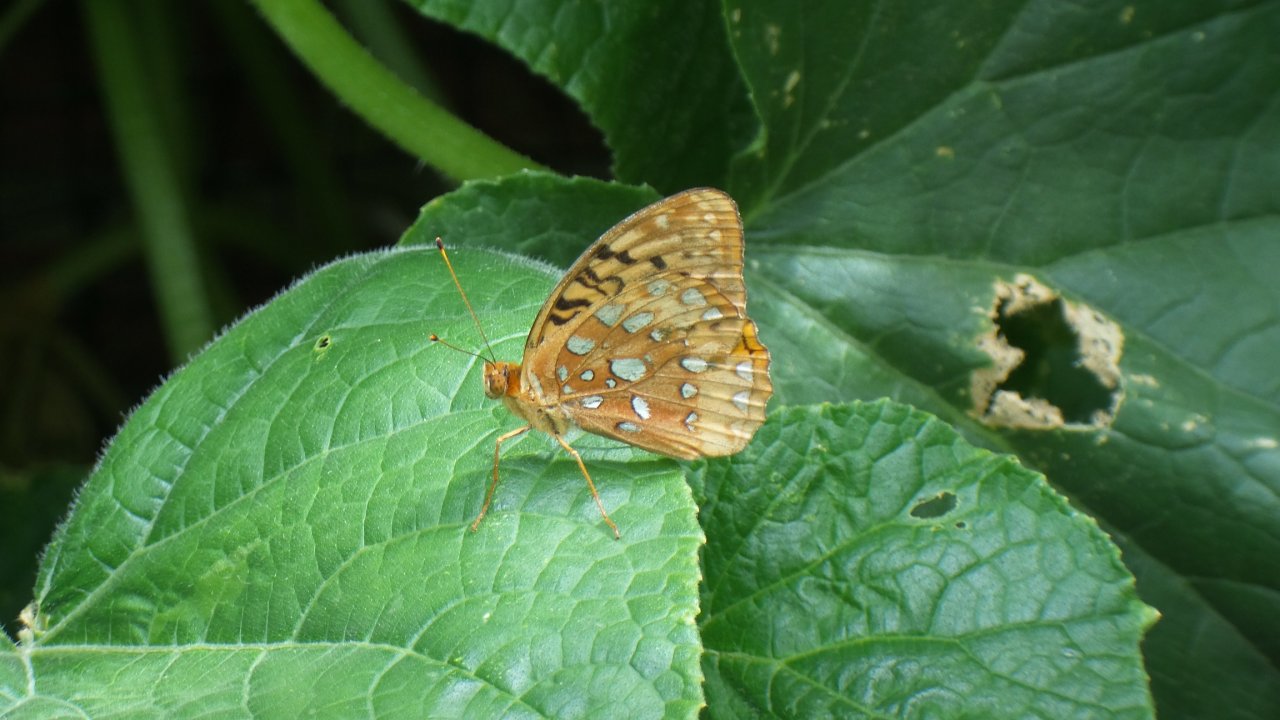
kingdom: Animalia
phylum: Arthropoda
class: Insecta
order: Lepidoptera
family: Nymphalidae
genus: Speyeria
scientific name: Speyeria cybele
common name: Great Spangled Fritillary
